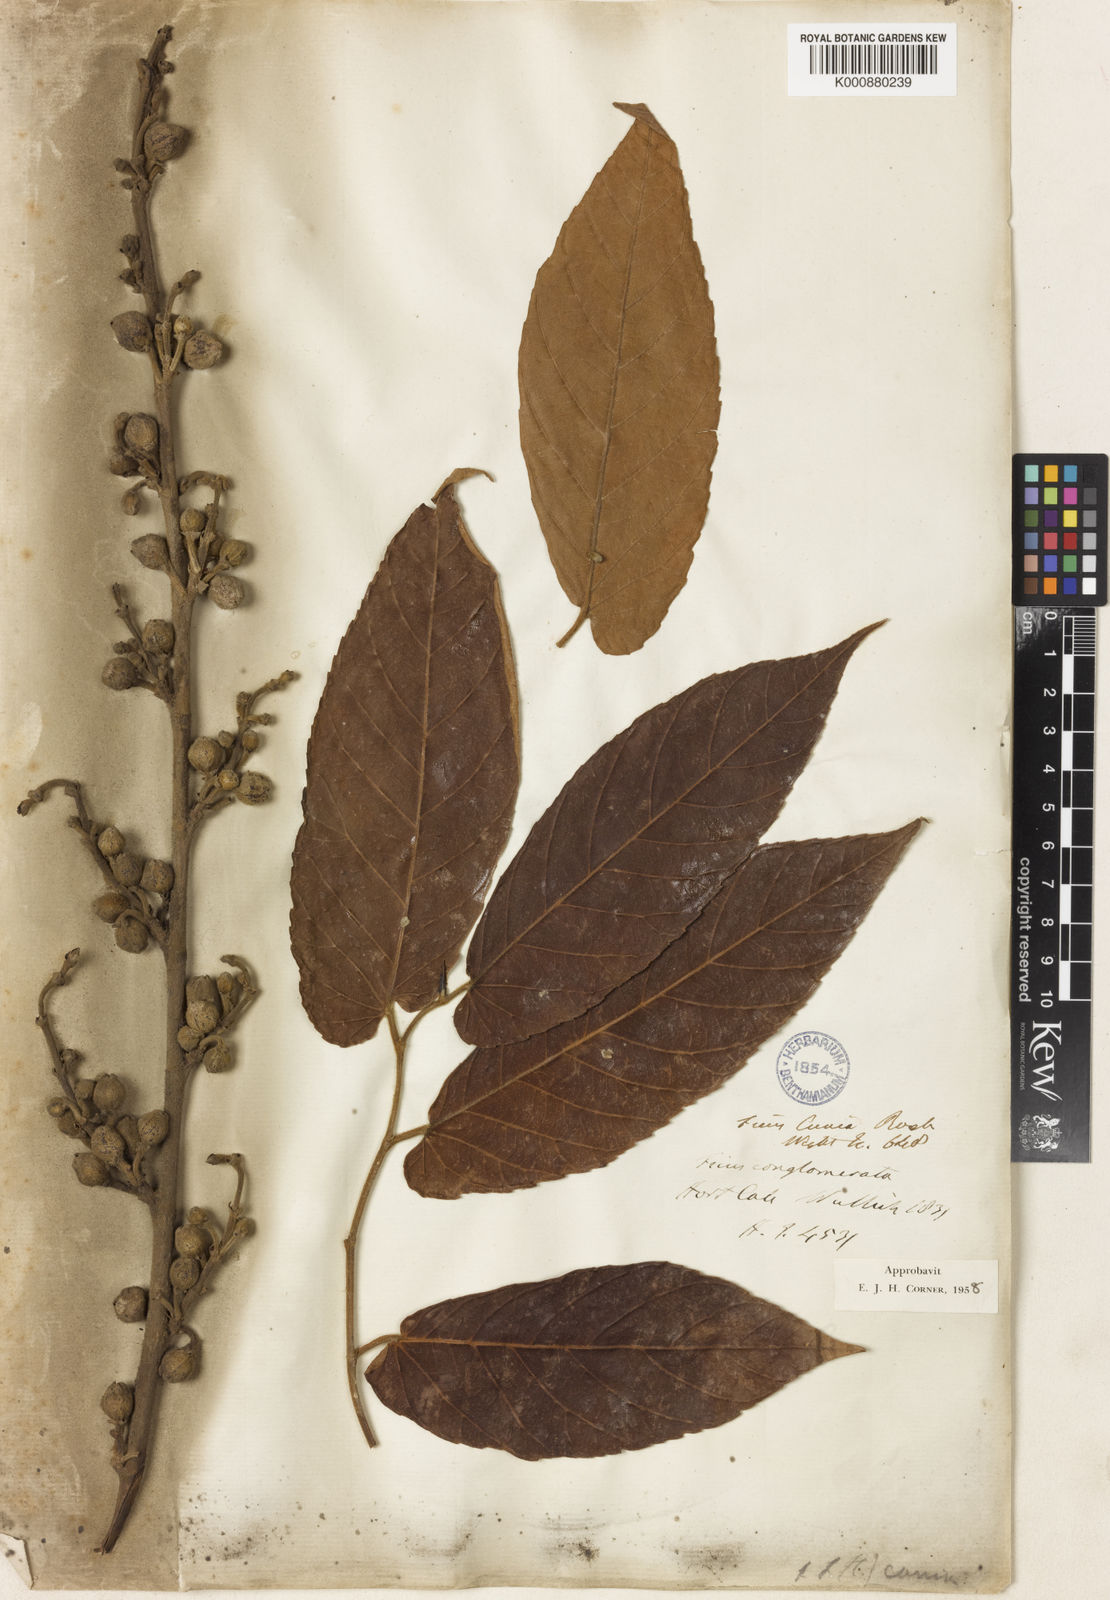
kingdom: Plantae
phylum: Tracheophyta
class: Magnoliopsida
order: Rosales
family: Moraceae
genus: Ficus
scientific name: Ficus semicordata
